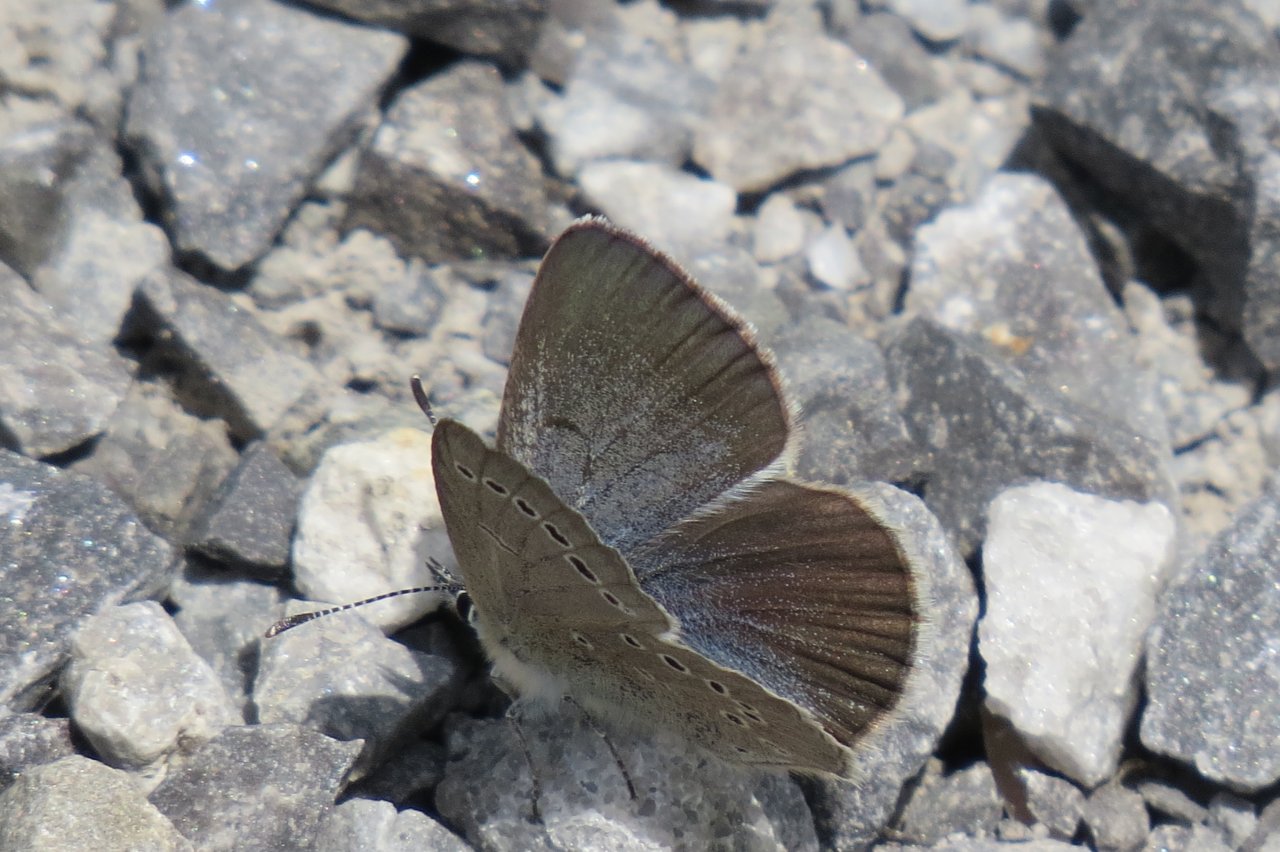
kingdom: Animalia
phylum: Arthropoda
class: Insecta
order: Lepidoptera
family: Lycaenidae
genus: Glaucopsyche
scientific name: Glaucopsyche lygdamus
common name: Silvery Blue
